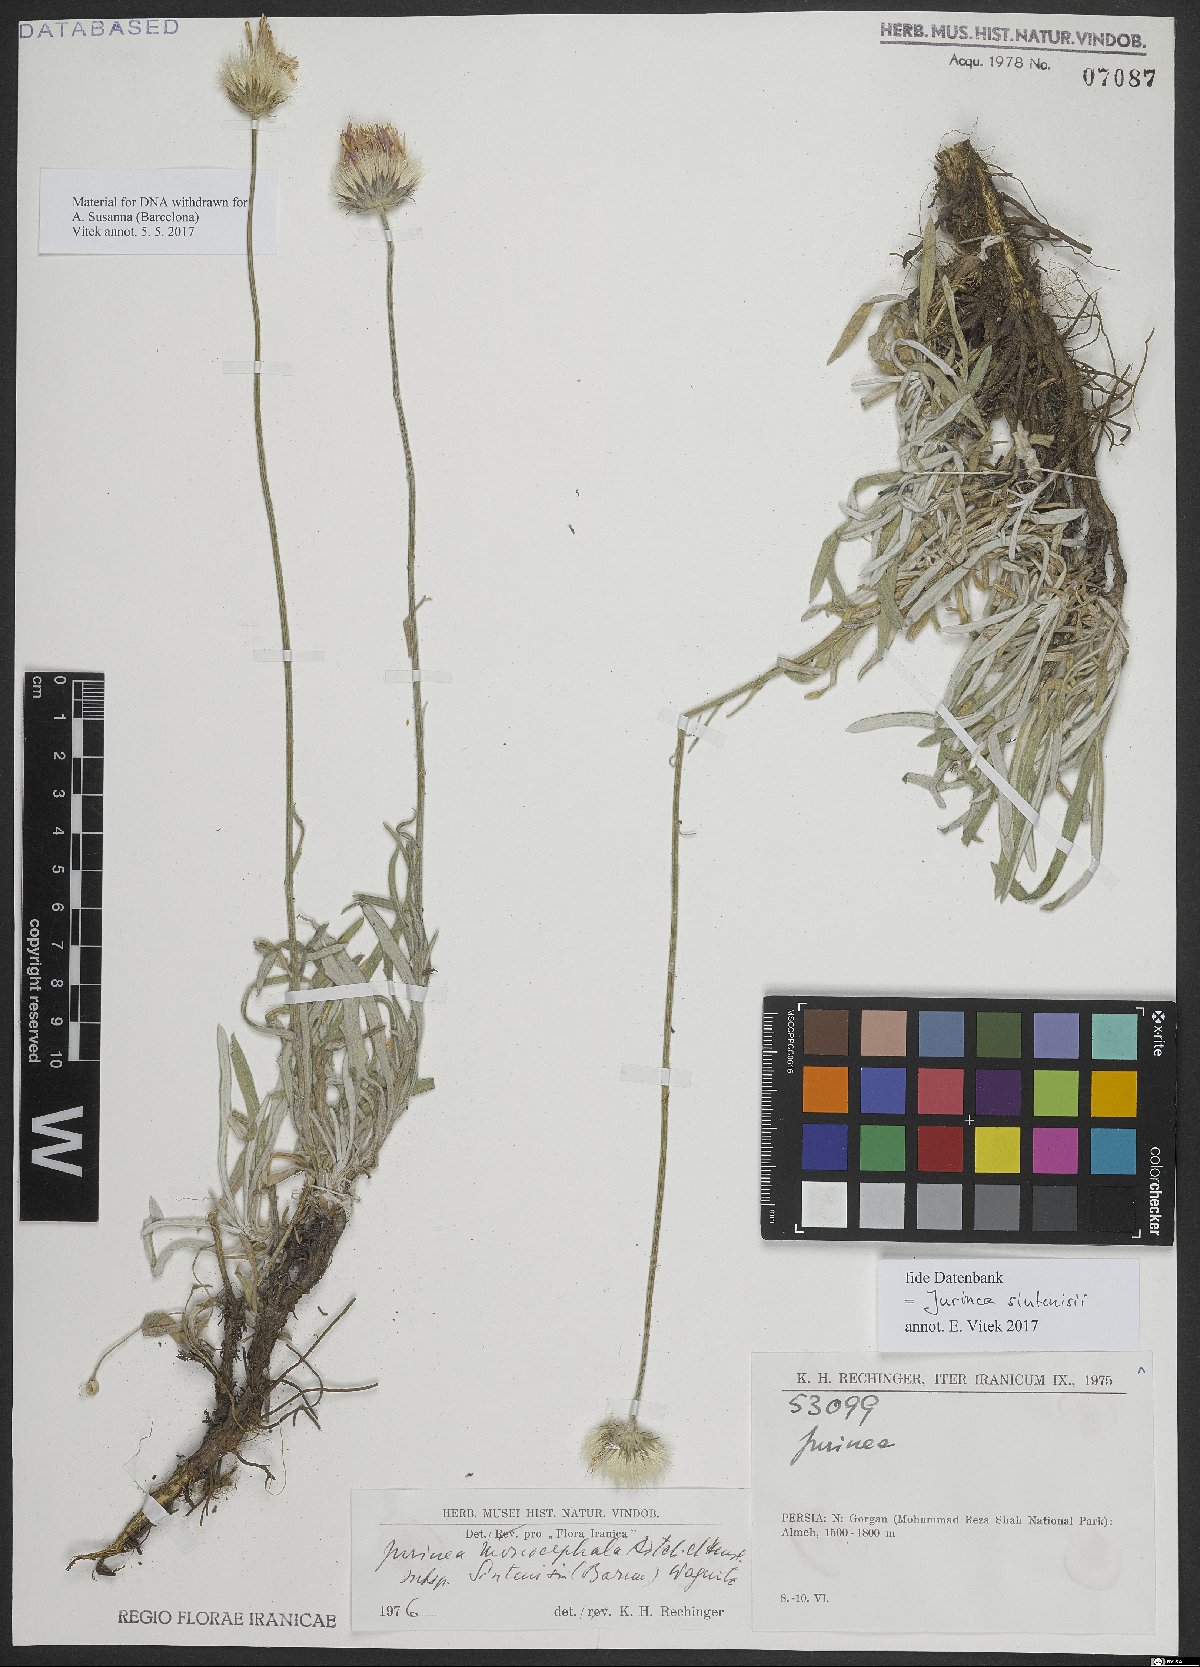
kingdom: Plantae
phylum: Tracheophyta
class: Magnoliopsida
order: Asterales
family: Asteraceae
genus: Jurinea
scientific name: Jurinea sintenisii
